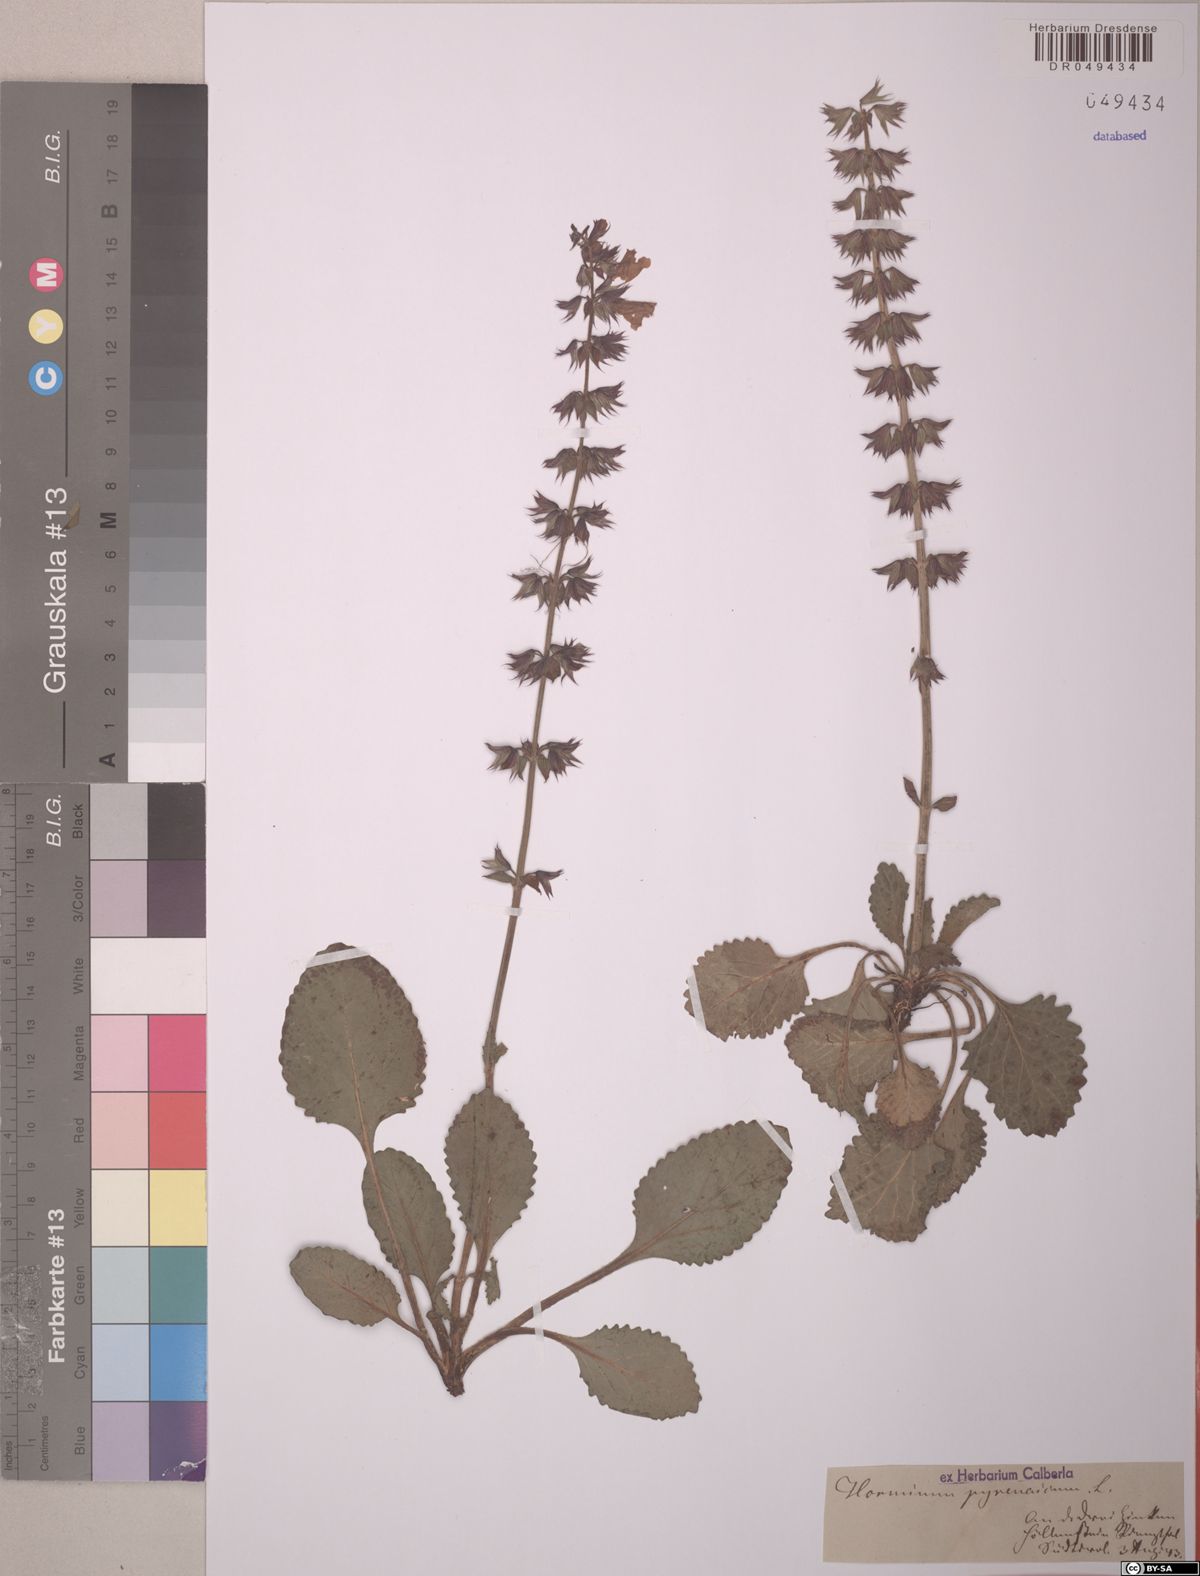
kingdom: Plantae
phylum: Tracheophyta
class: Magnoliopsida
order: Lamiales
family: Lamiaceae
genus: Horminum
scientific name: Horminum pyrenaicum
